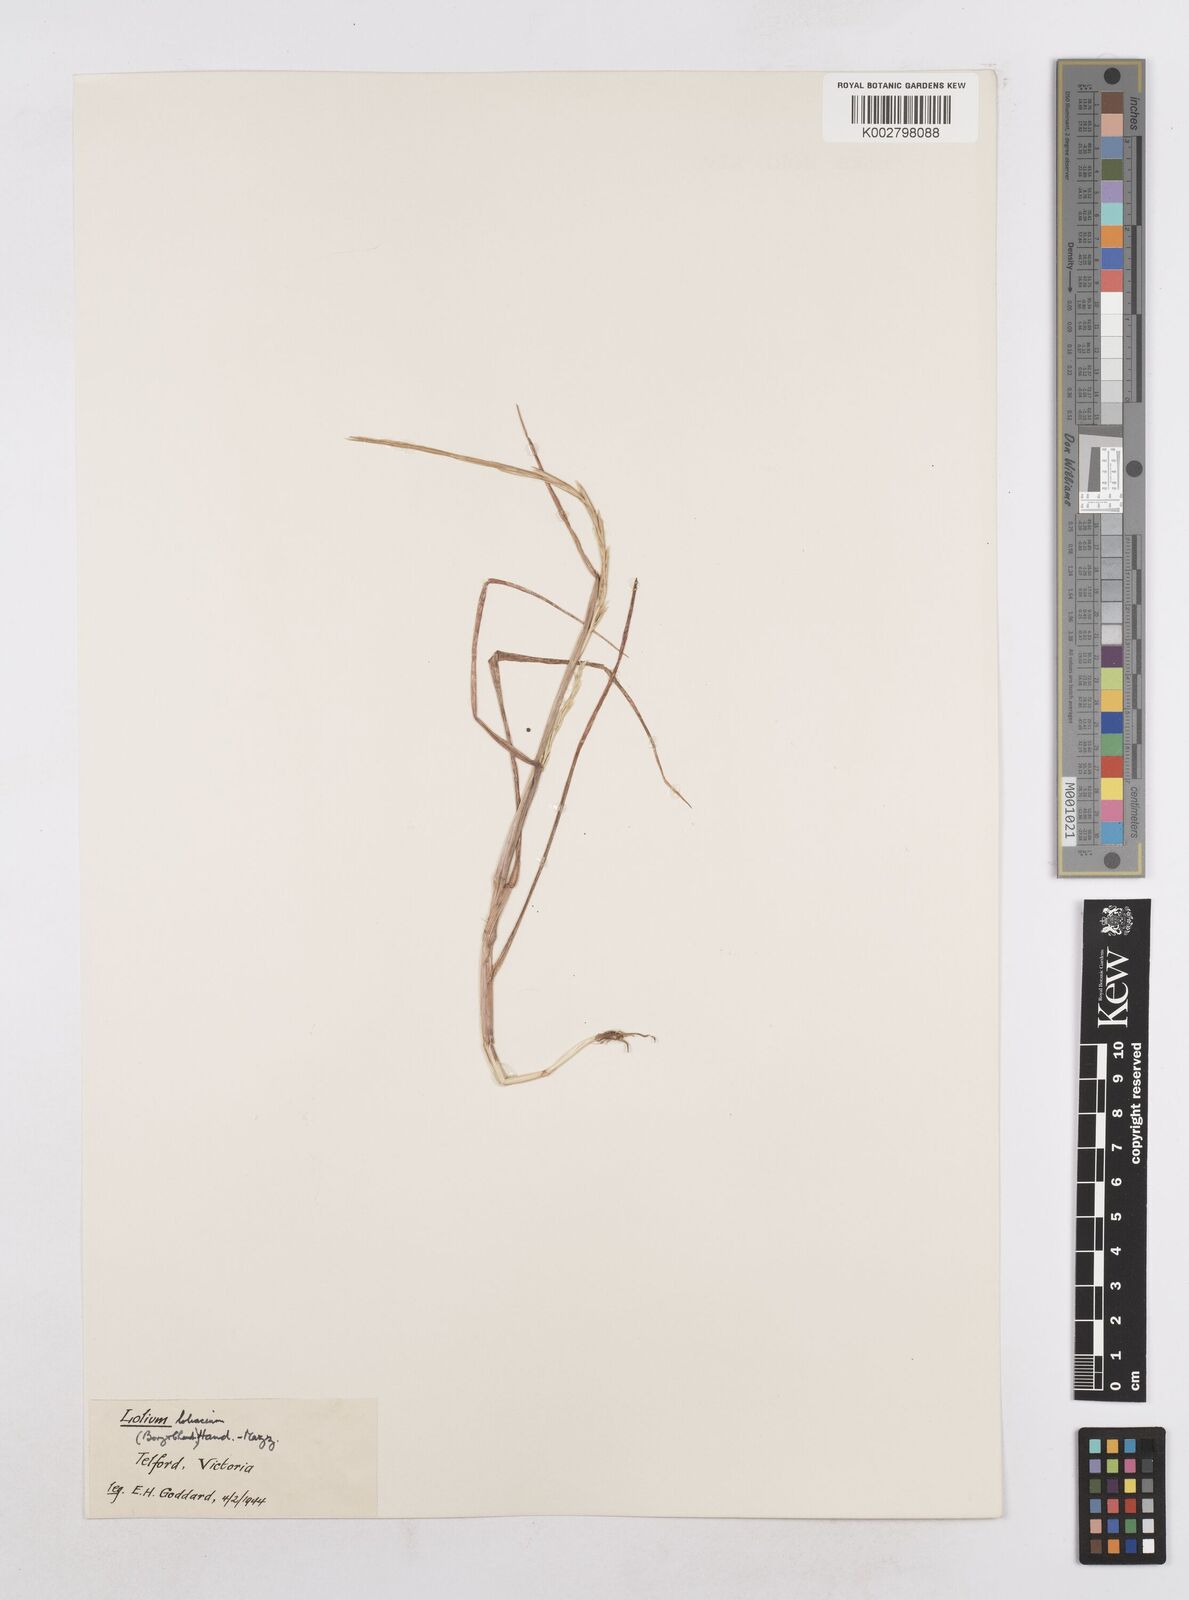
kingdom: Plantae
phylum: Tracheophyta
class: Liliopsida
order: Poales
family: Poaceae
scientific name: Poaceae
